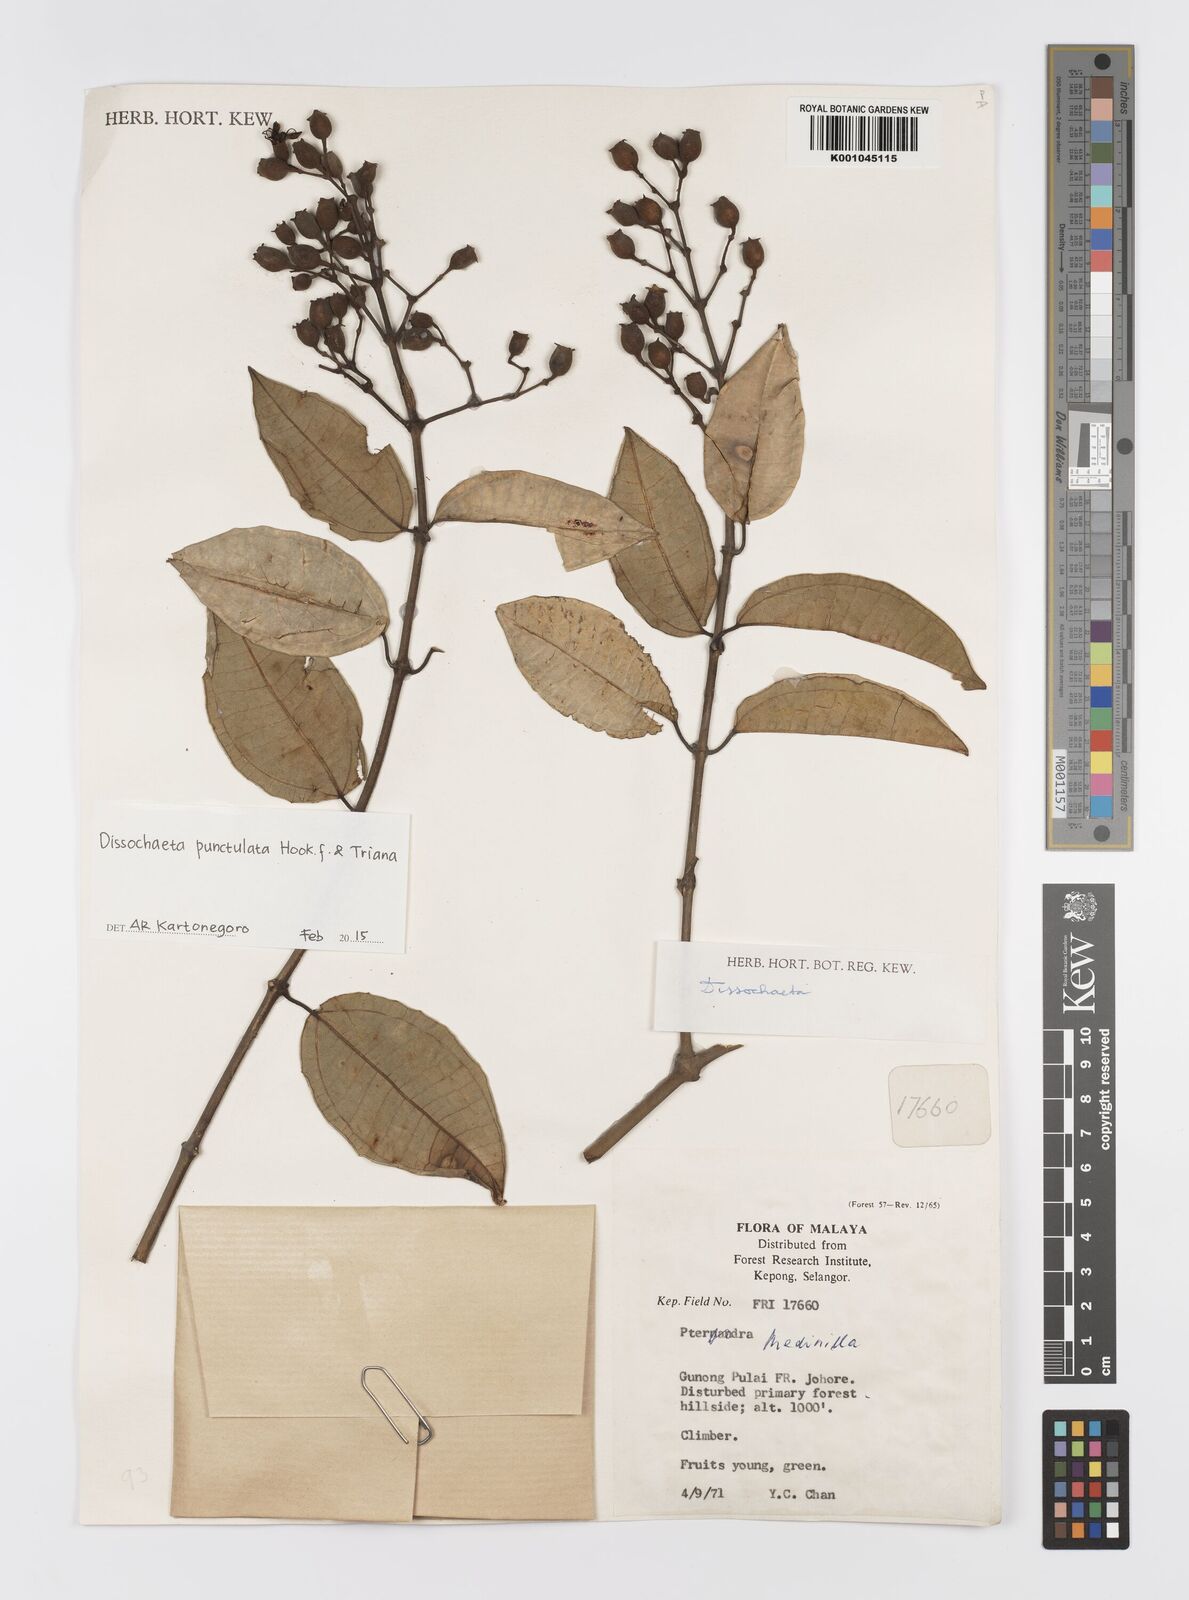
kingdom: Plantae
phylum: Tracheophyta
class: Magnoliopsida
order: Myrtales
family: Melastomataceae
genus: Dissochaeta
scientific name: Dissochaeta punctulata
